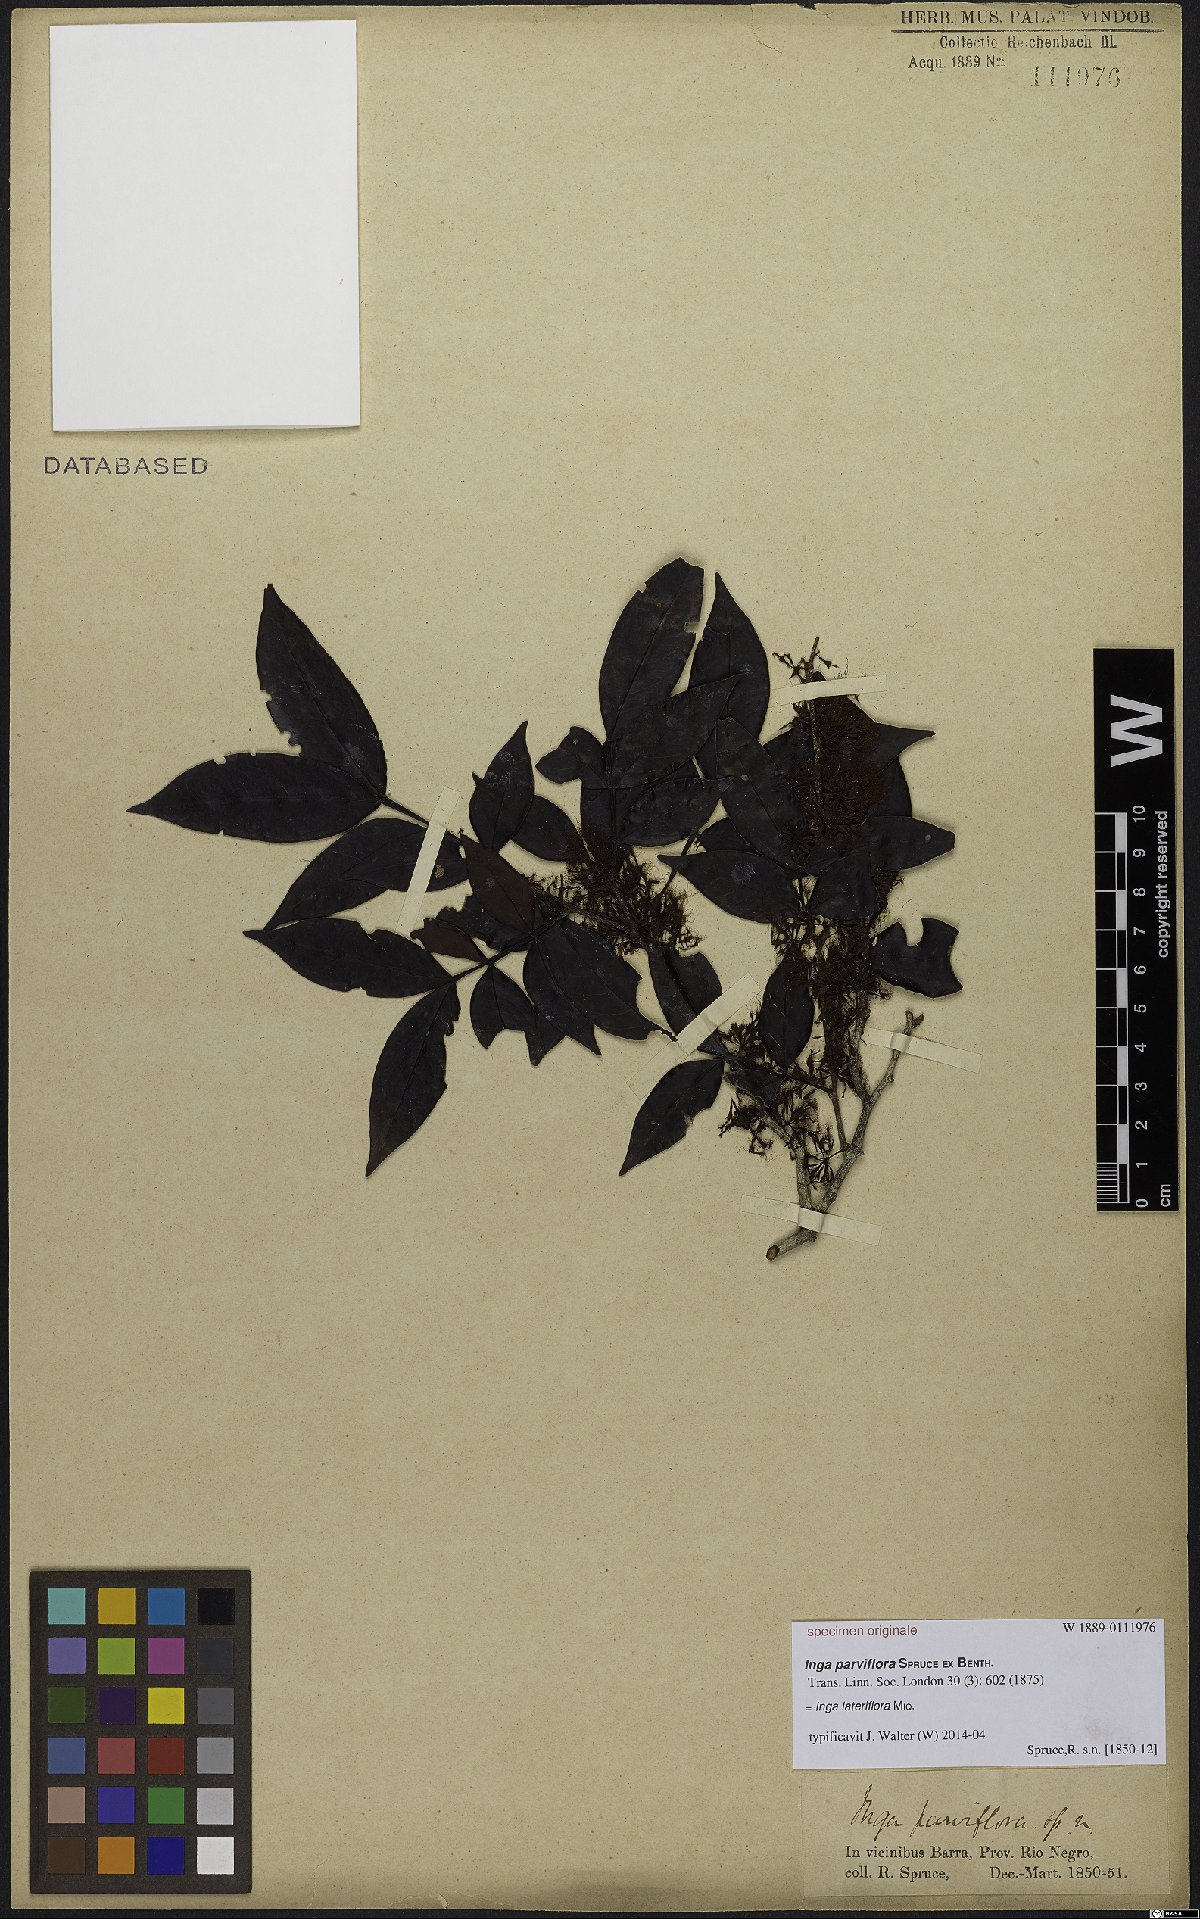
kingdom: Plantae
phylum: Tracheophyta
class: Magnoliopsida
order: Fabales
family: Fabaceae
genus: Inga
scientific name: Inga lateriflora
